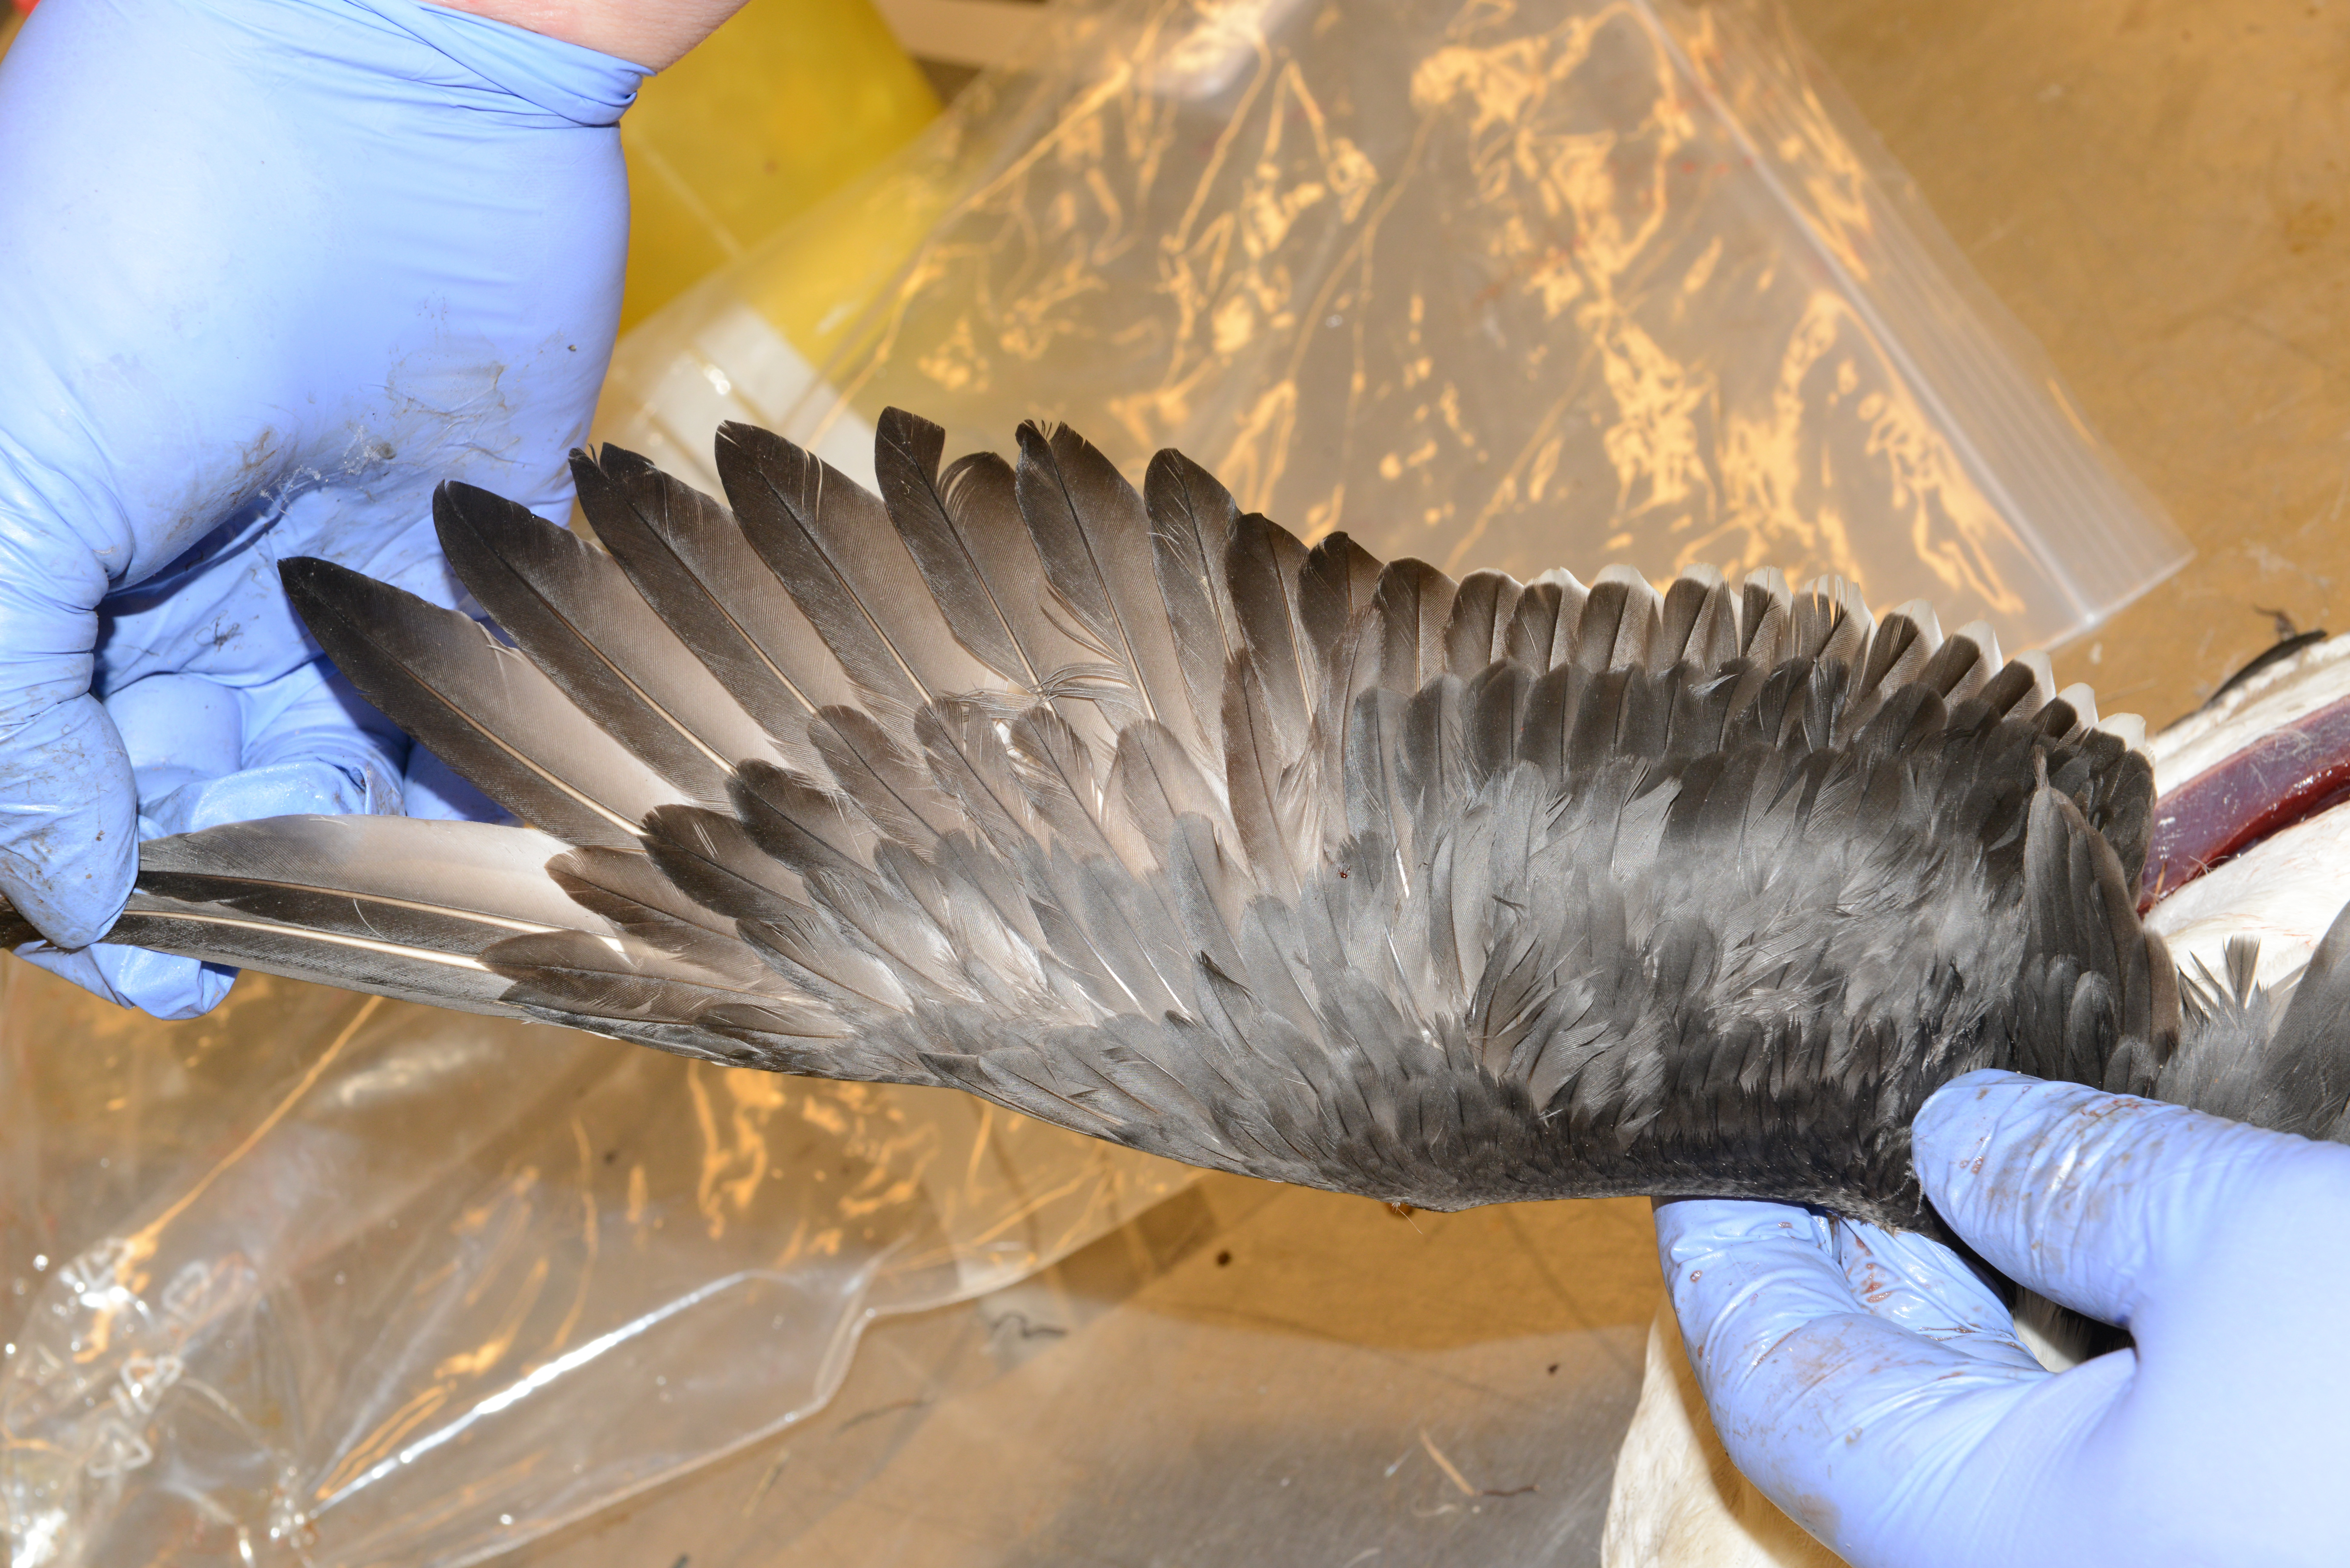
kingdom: Animalia
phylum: Chordata
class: Aves
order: Charadriiformes
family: Alcidae
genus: Uria
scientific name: Uria aalge
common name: Common murre
